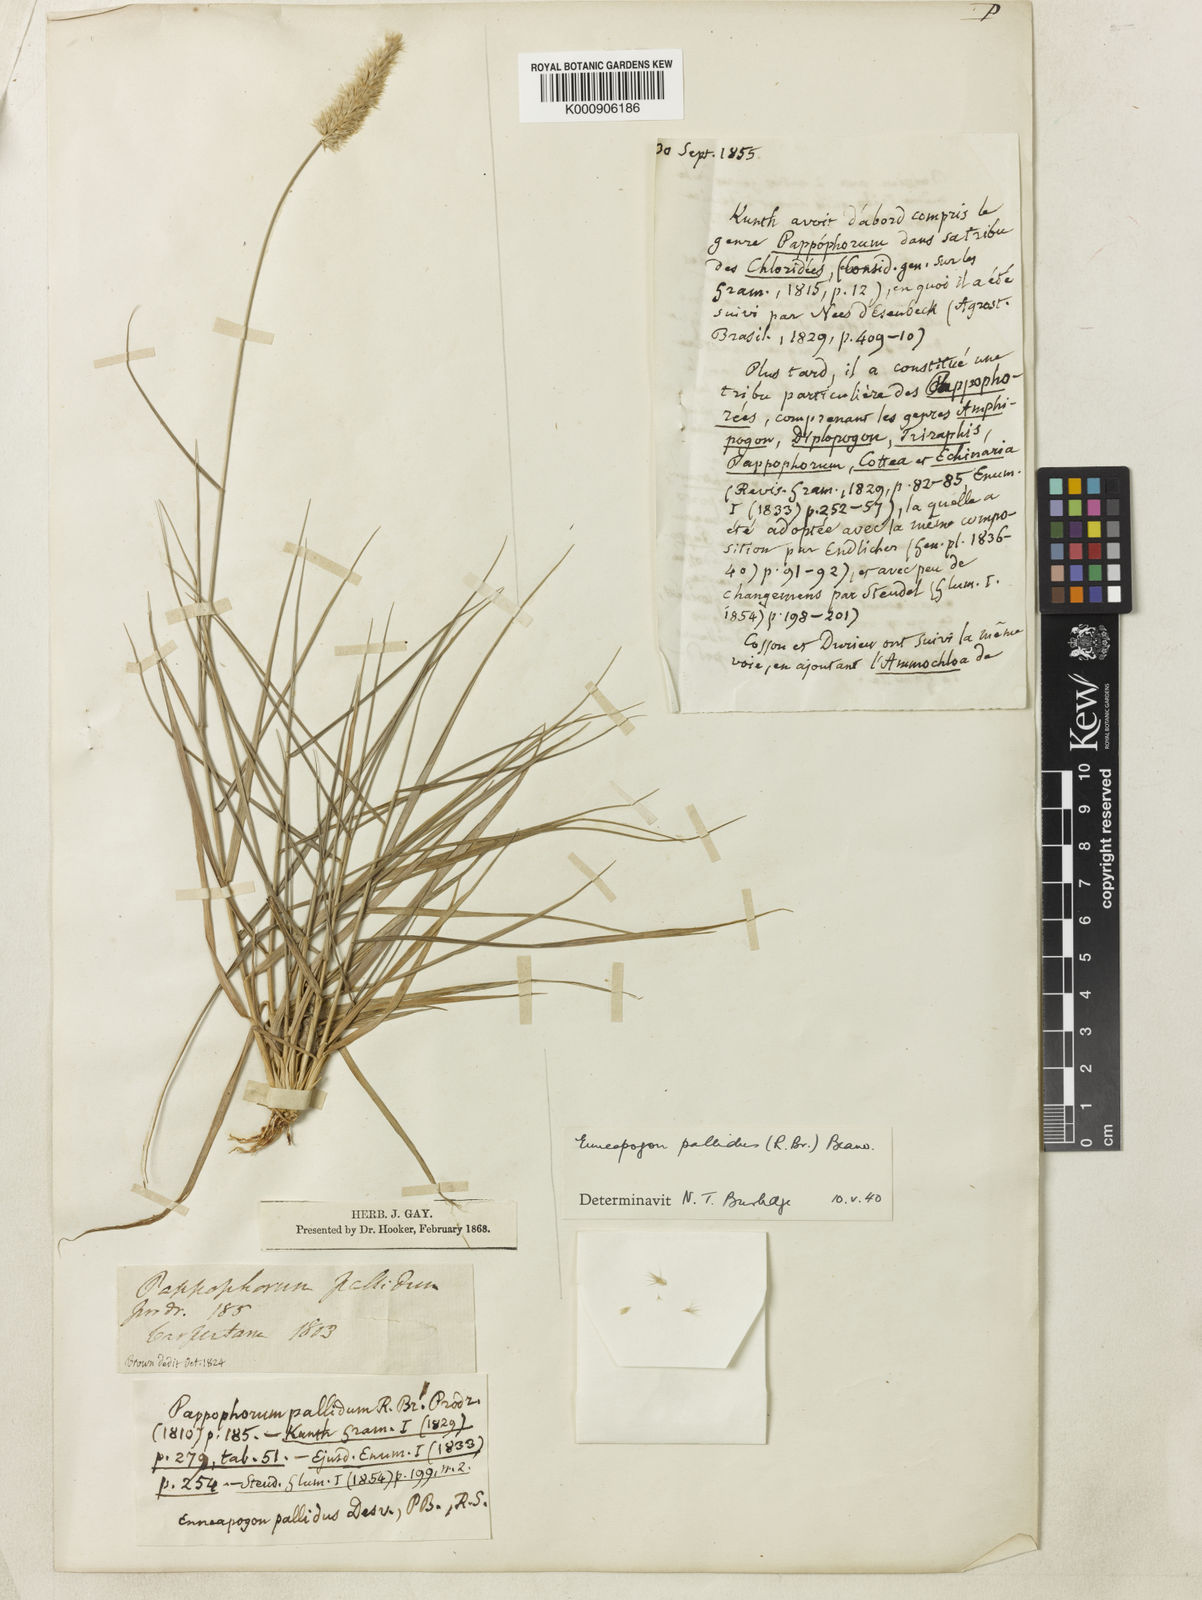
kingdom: Plantae
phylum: Tracheophyta
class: Liliopsida
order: Poales
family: Poaceae
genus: Enneapogon
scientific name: Enneapogon pallidus
